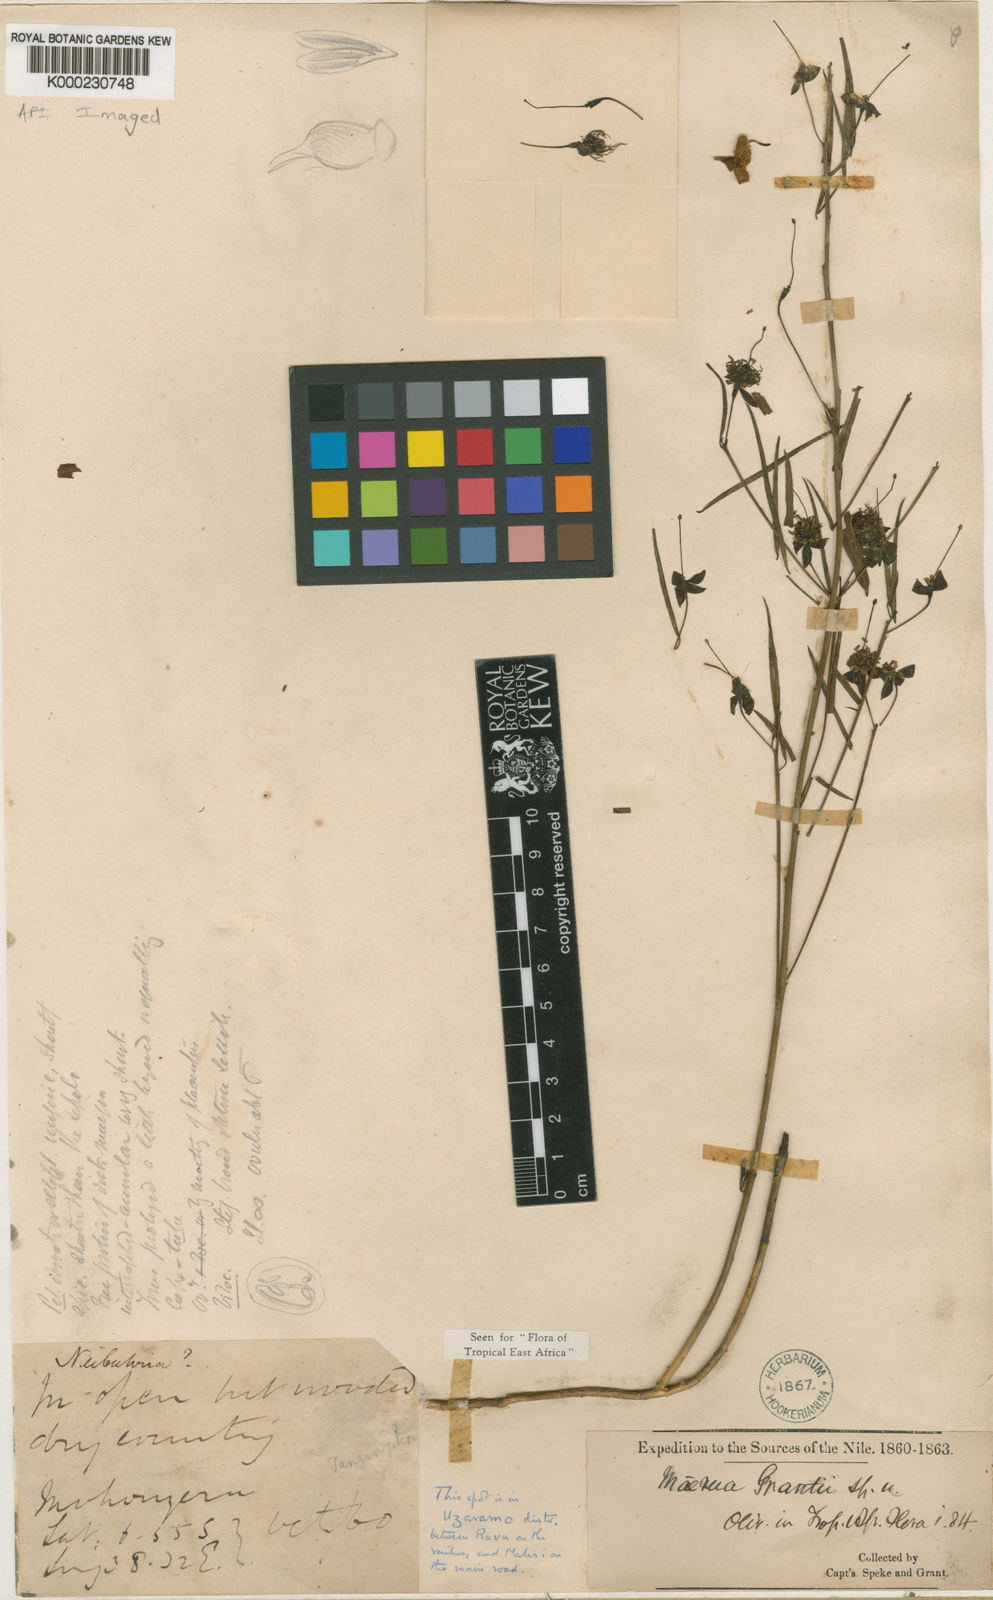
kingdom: Plantae
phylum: Tracheophyta
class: Magnoliopsida
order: Brassicales
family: Capparaceae
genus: Maerua
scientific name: Maerua grantii
